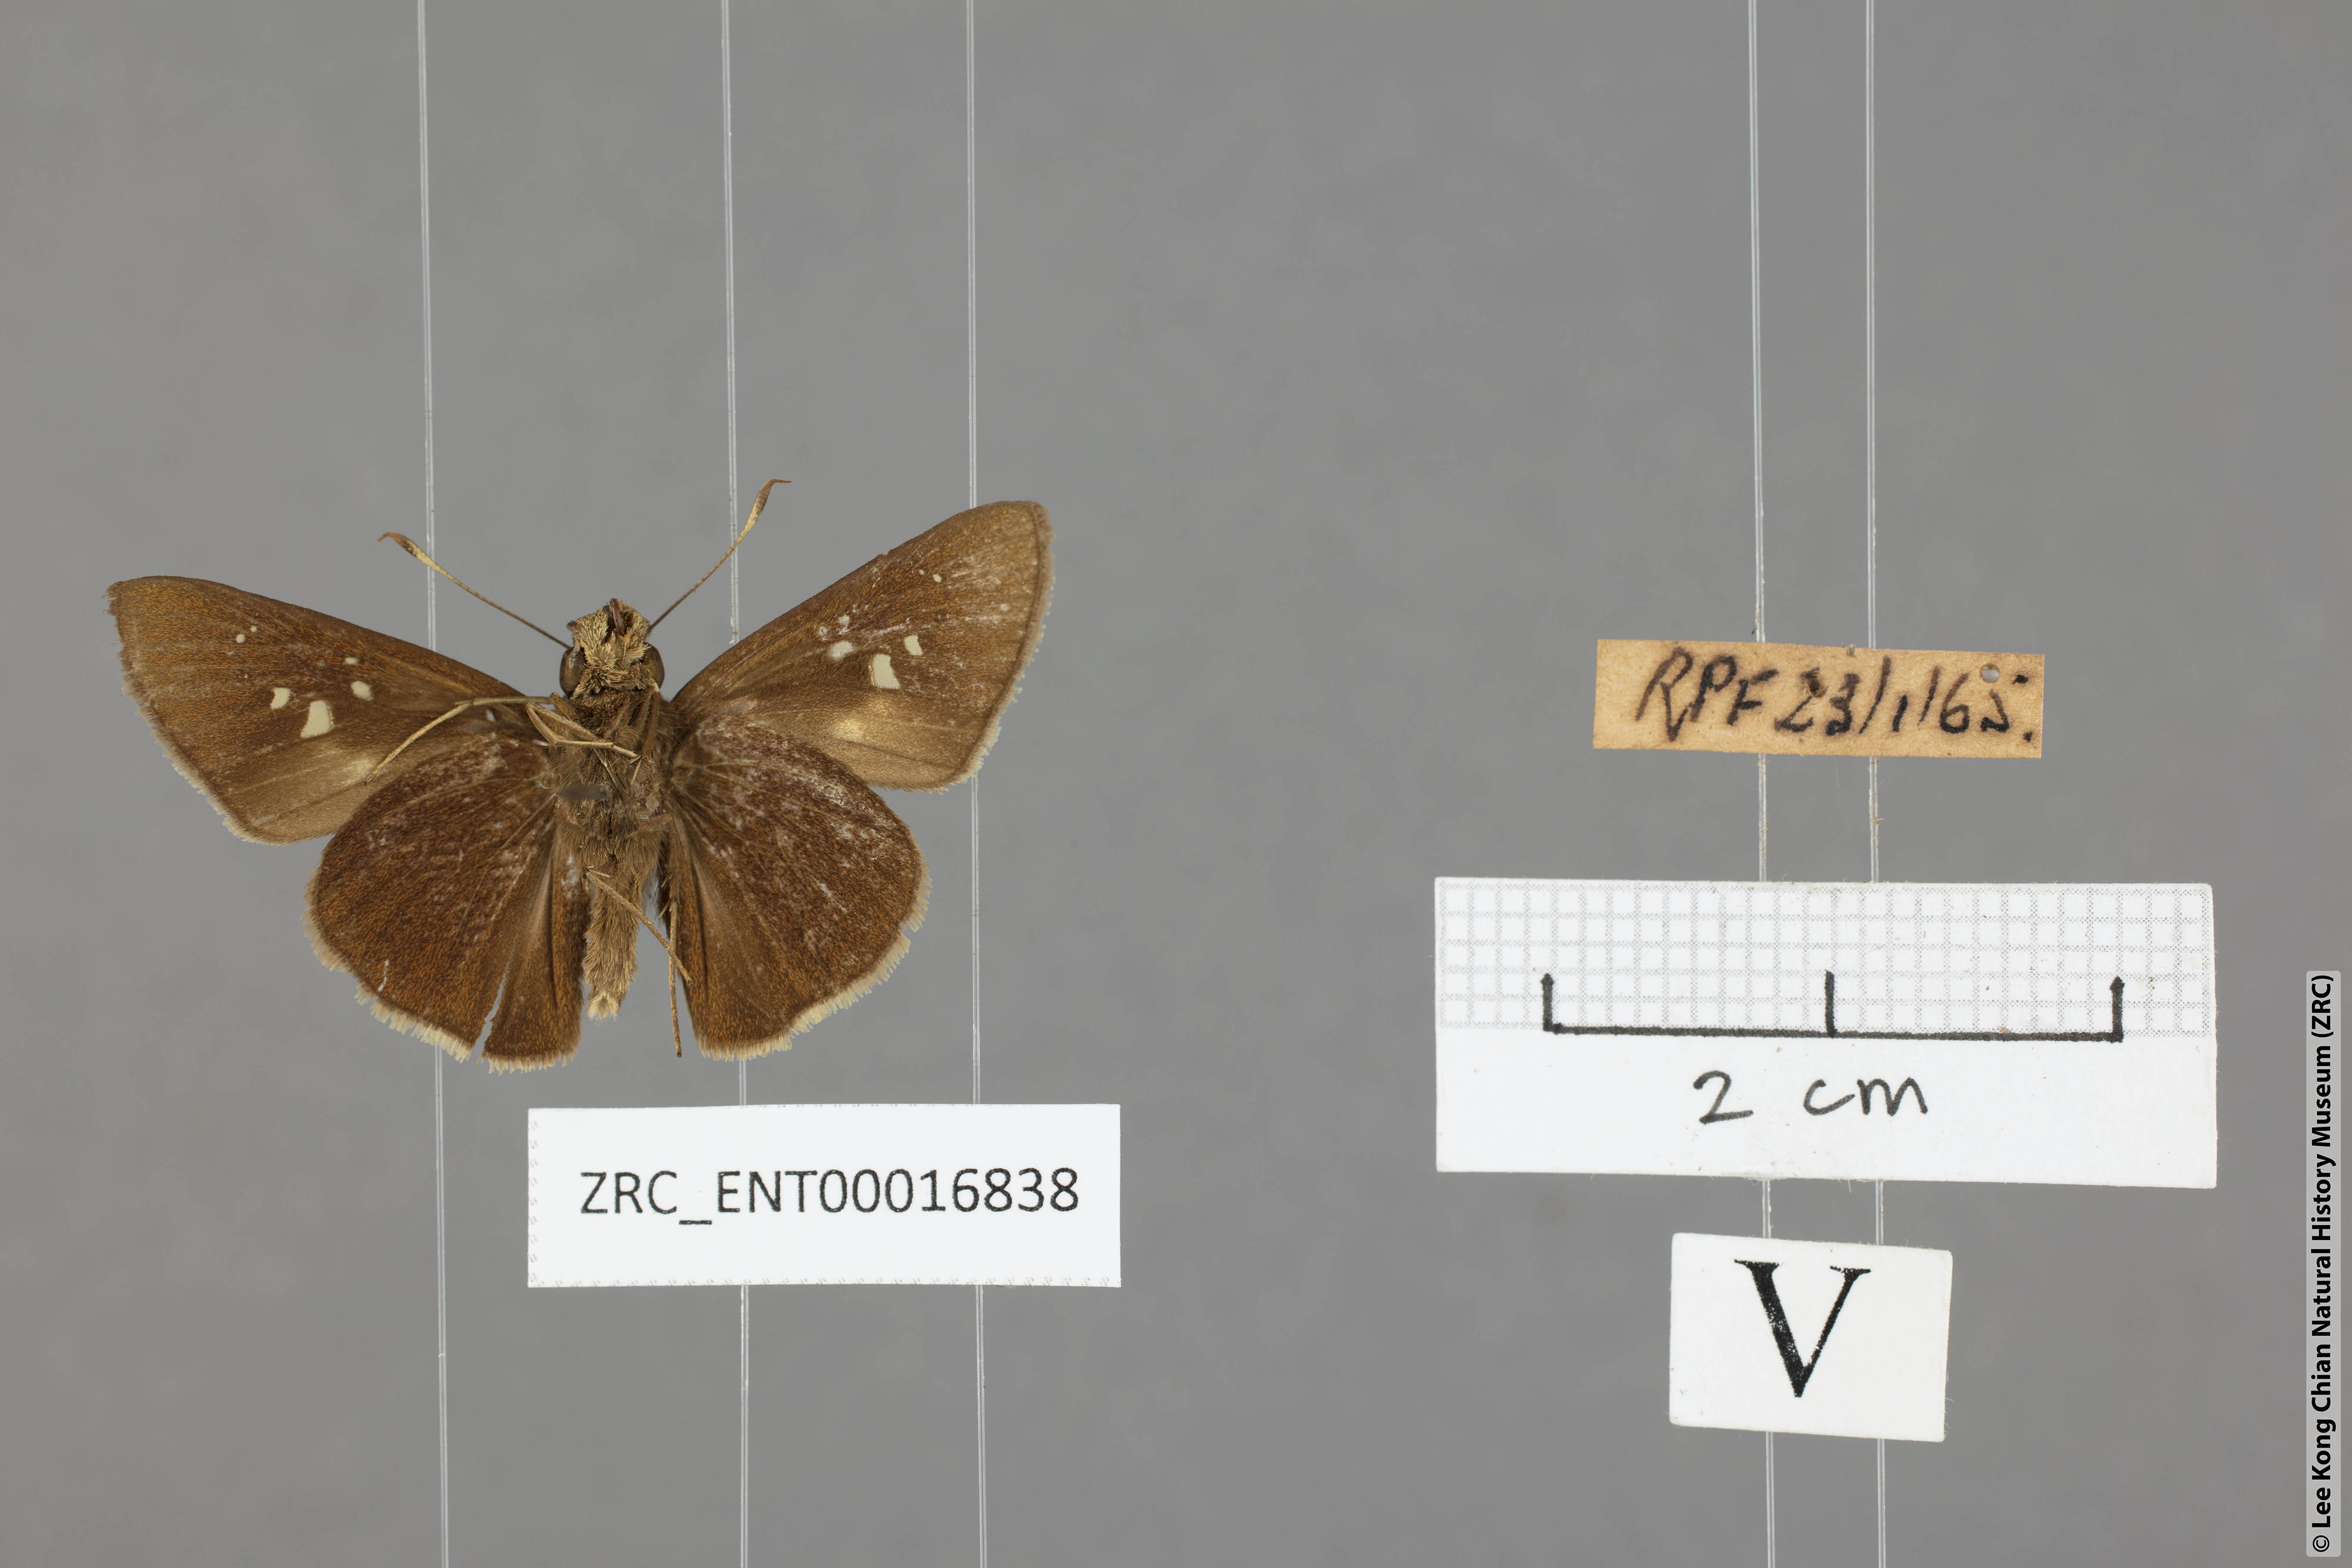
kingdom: Animalia
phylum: Arthropoda
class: Insecta
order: Lepidoptera
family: Hesperiidae
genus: Caltoris
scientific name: Caltoris cormasa
